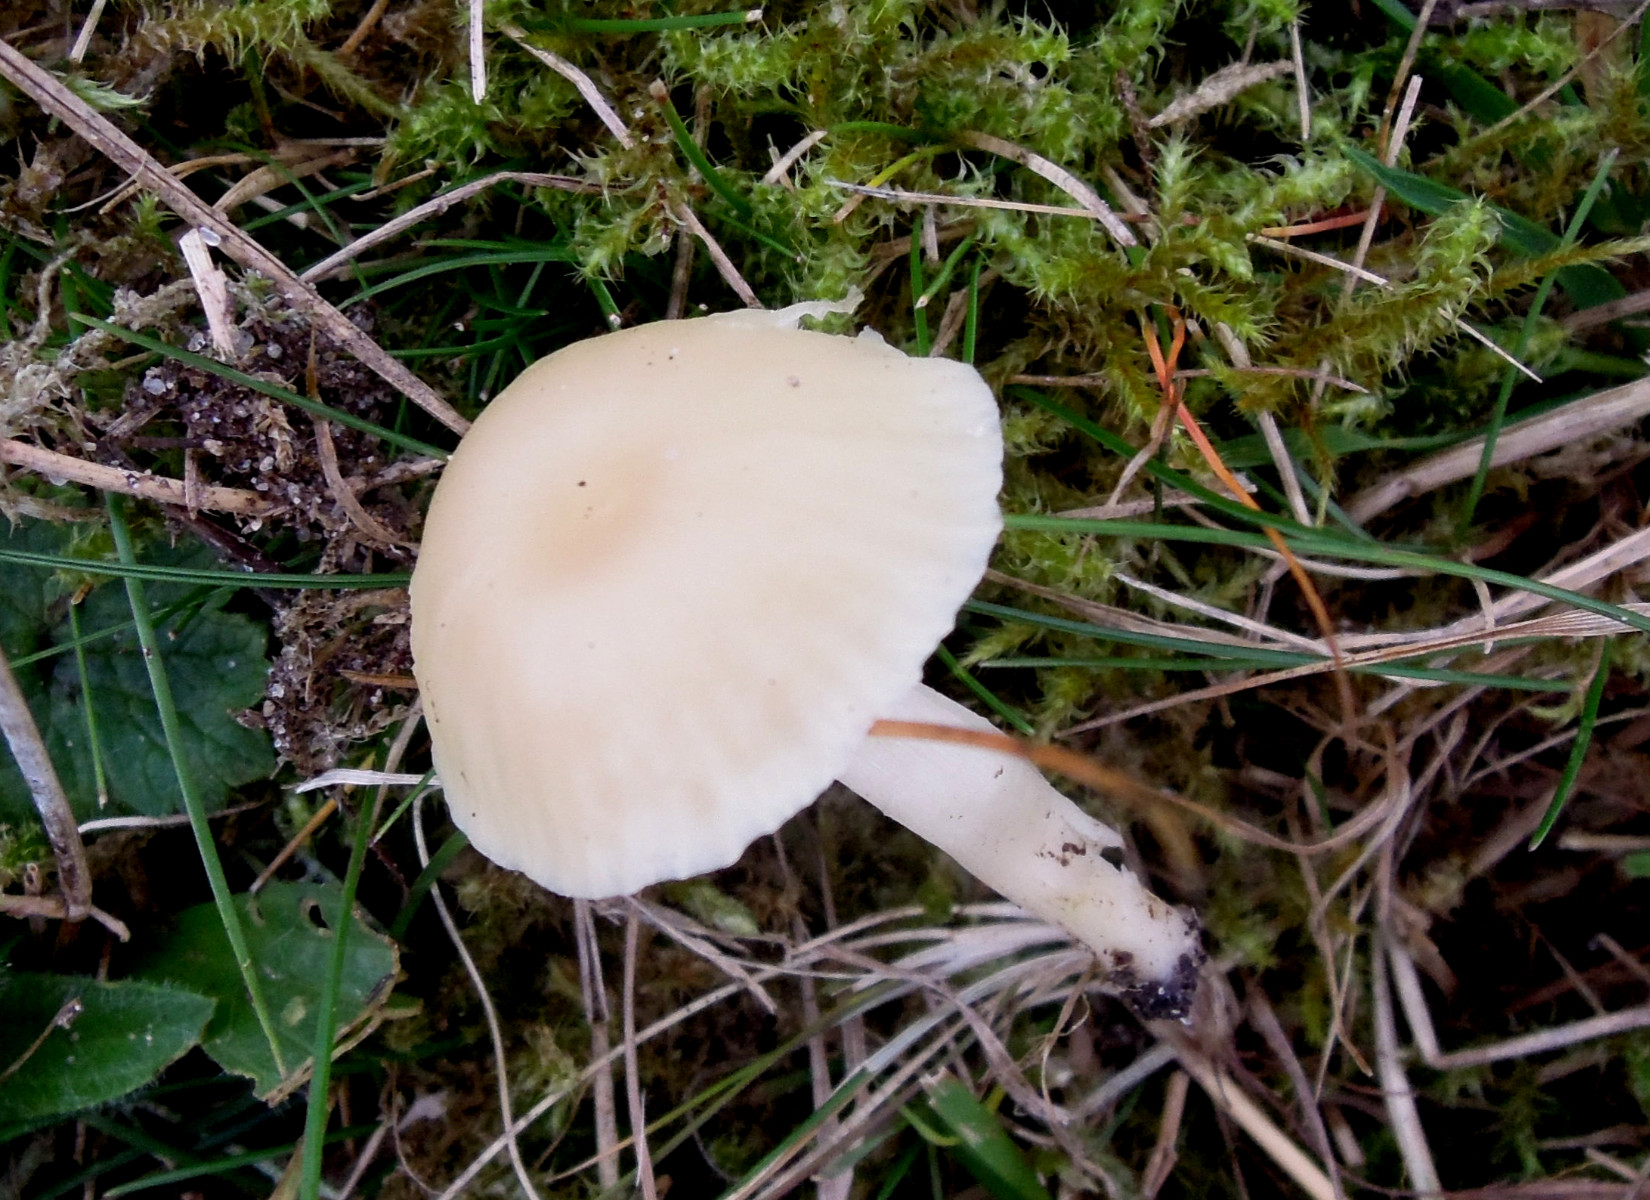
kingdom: Fungi
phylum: Basidiomycota
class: Agaricomycetes
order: Agaricales
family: Hygrophoraceae
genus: Cuphophyllus
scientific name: Cuphophyllus russocoriaceus
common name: ruslæder-vokshat
